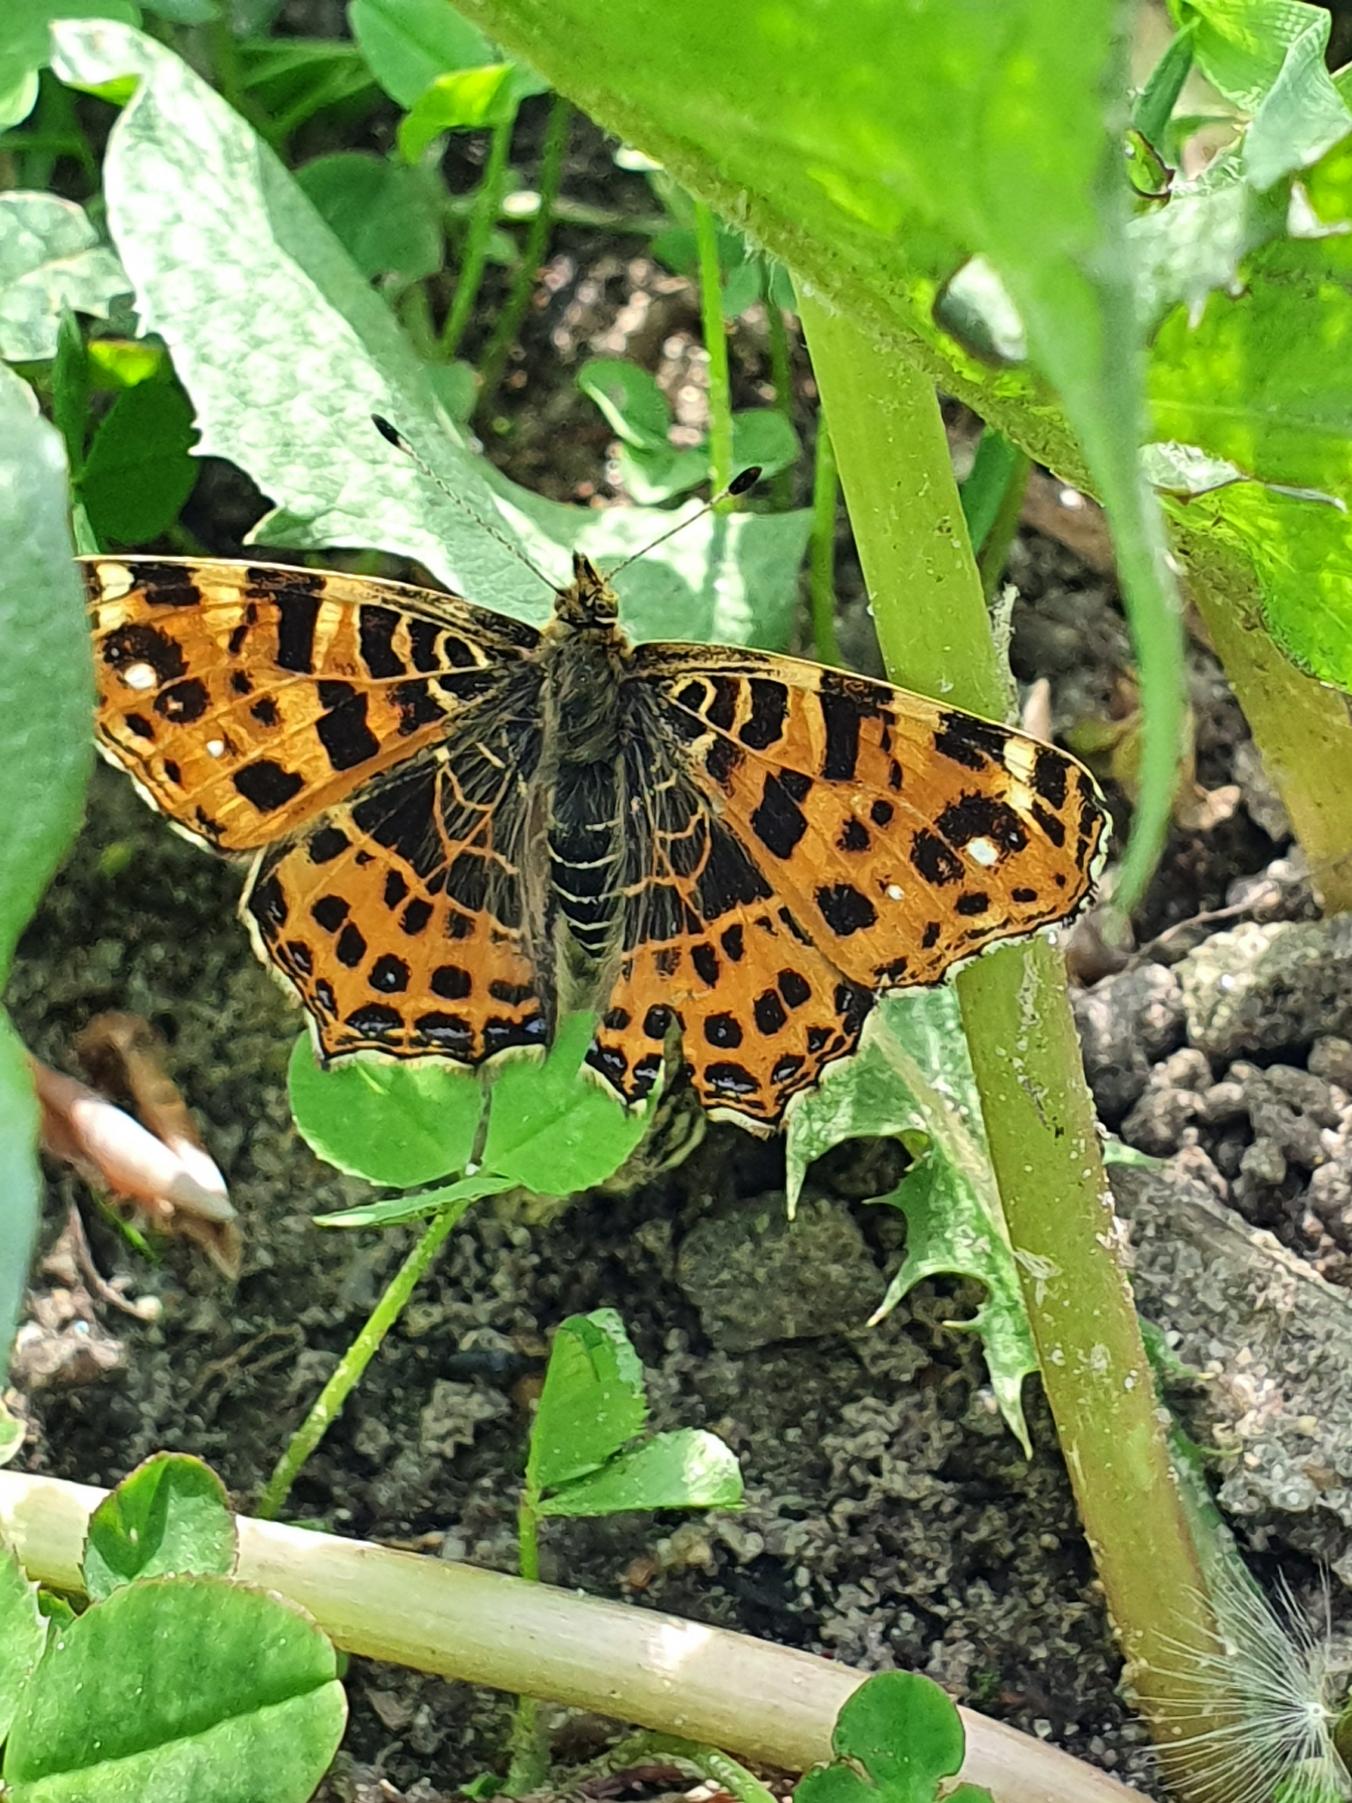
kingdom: Animalia
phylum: Arthropoda
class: Insecta
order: Lepidoptera
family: Nymphalidae
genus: Araschnia
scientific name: Araschnia levana
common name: Nældesommerfugl
